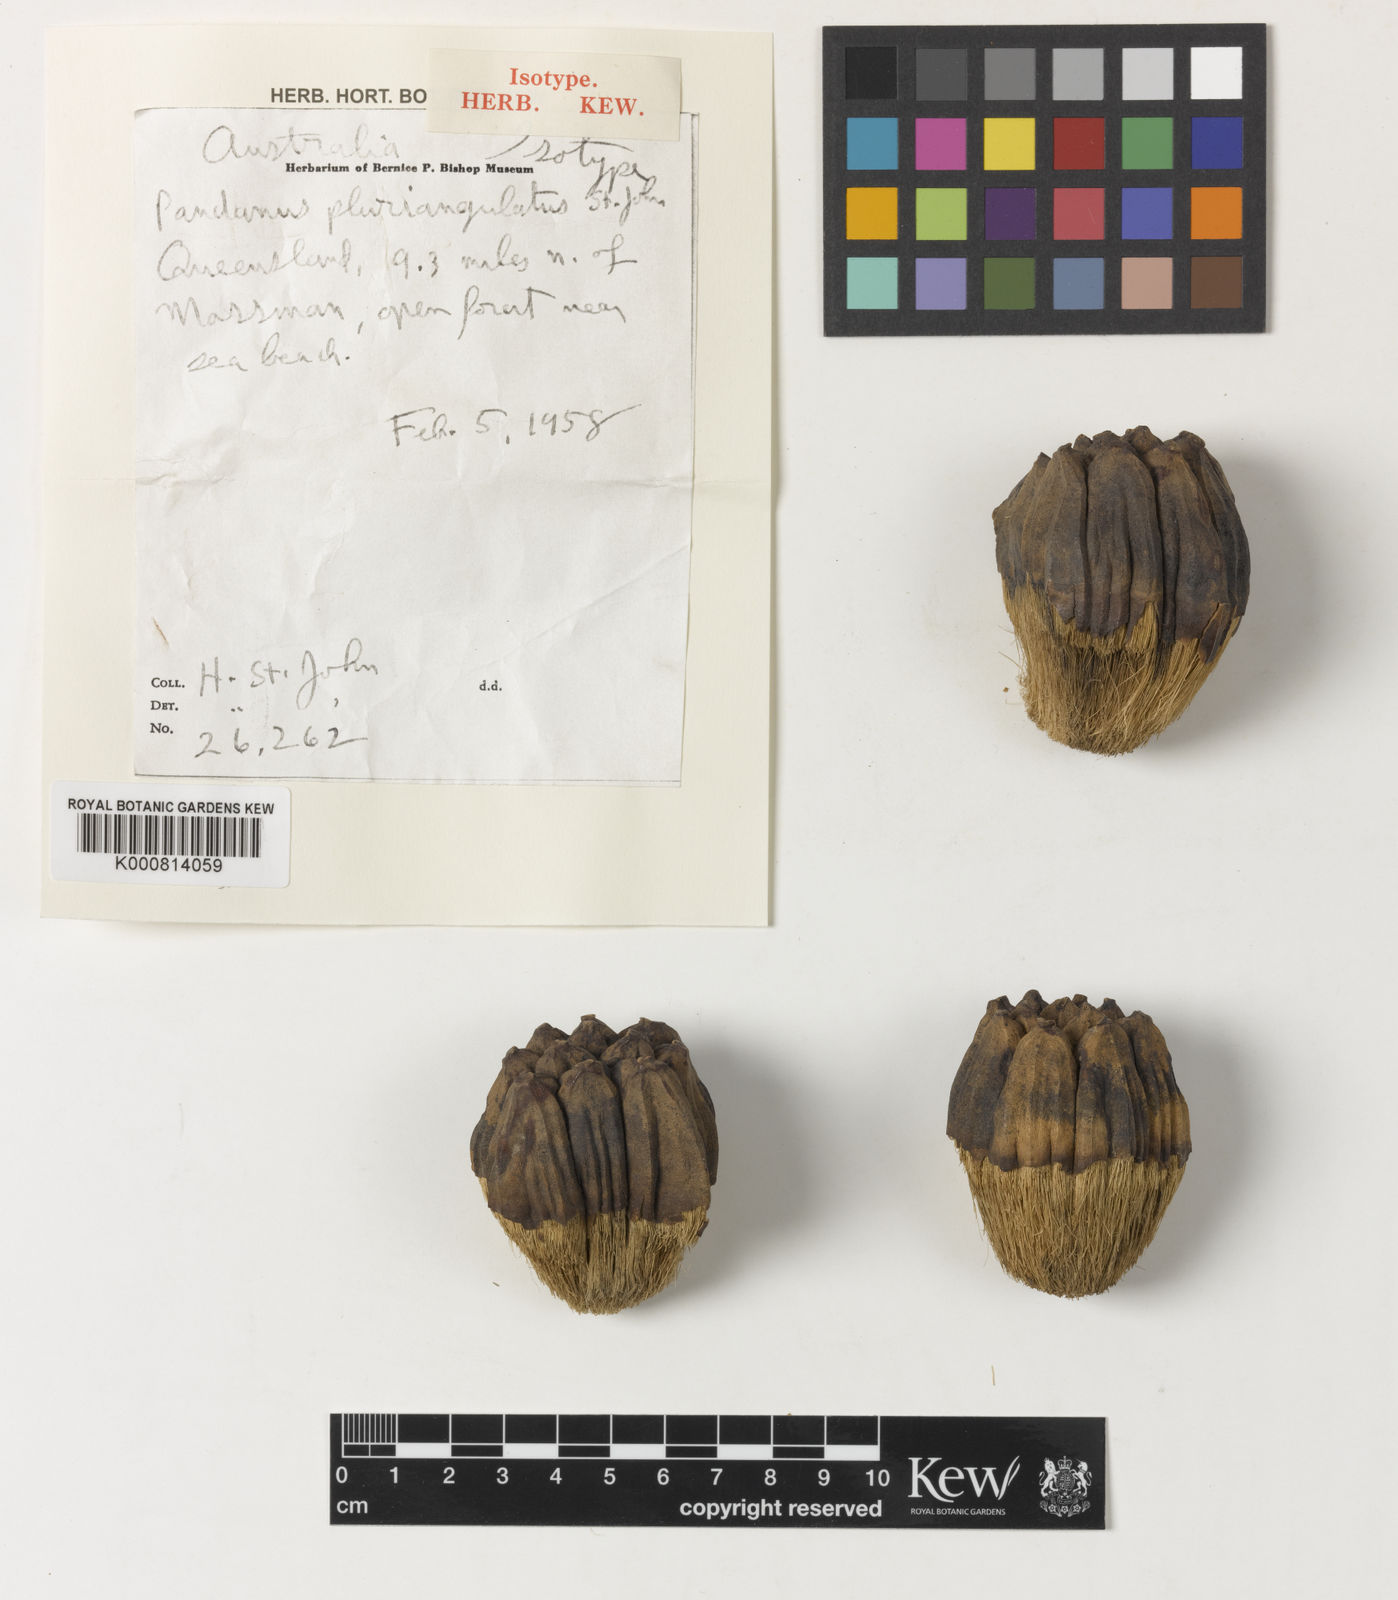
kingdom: Plantae
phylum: Tracheophyta
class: Liliopsida
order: Pandanales
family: Pandanaceae
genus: Pandanus
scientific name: Pandanus cookii
